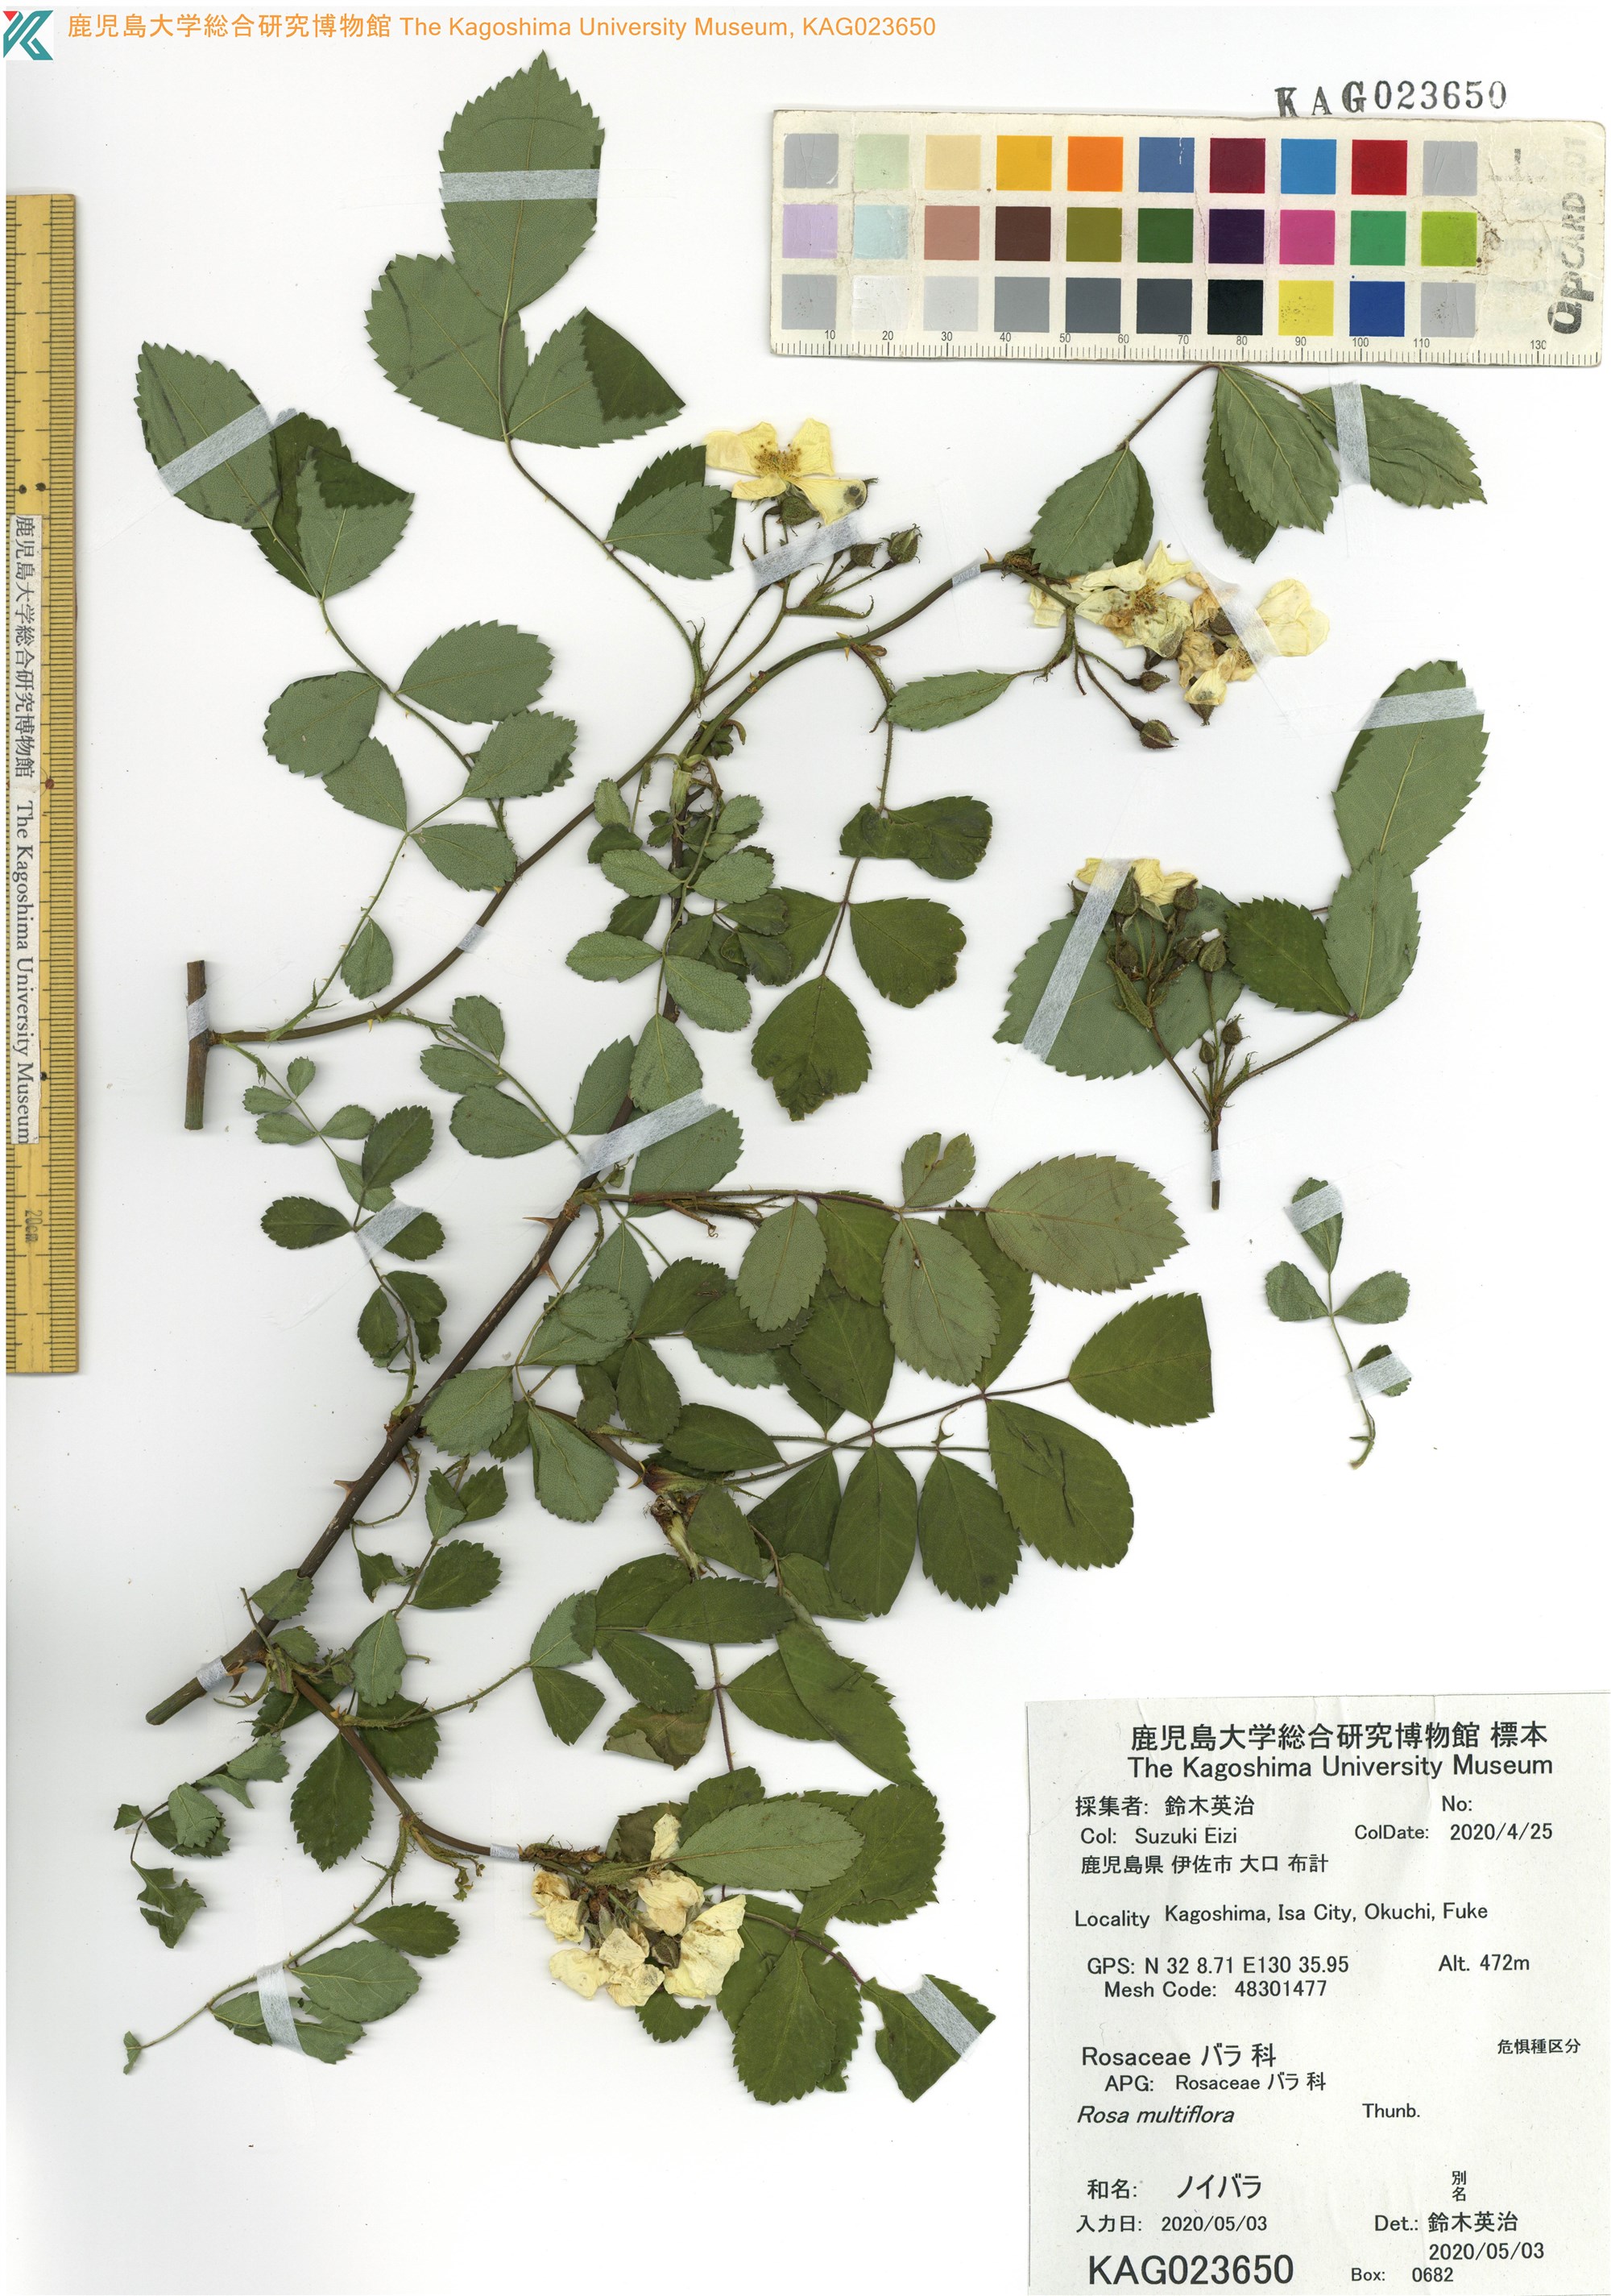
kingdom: Plantae
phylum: Tracheophyta
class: Magnoliopsida
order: Rosales
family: Rosaceae
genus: Rosa
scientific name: Rosa multiflora
